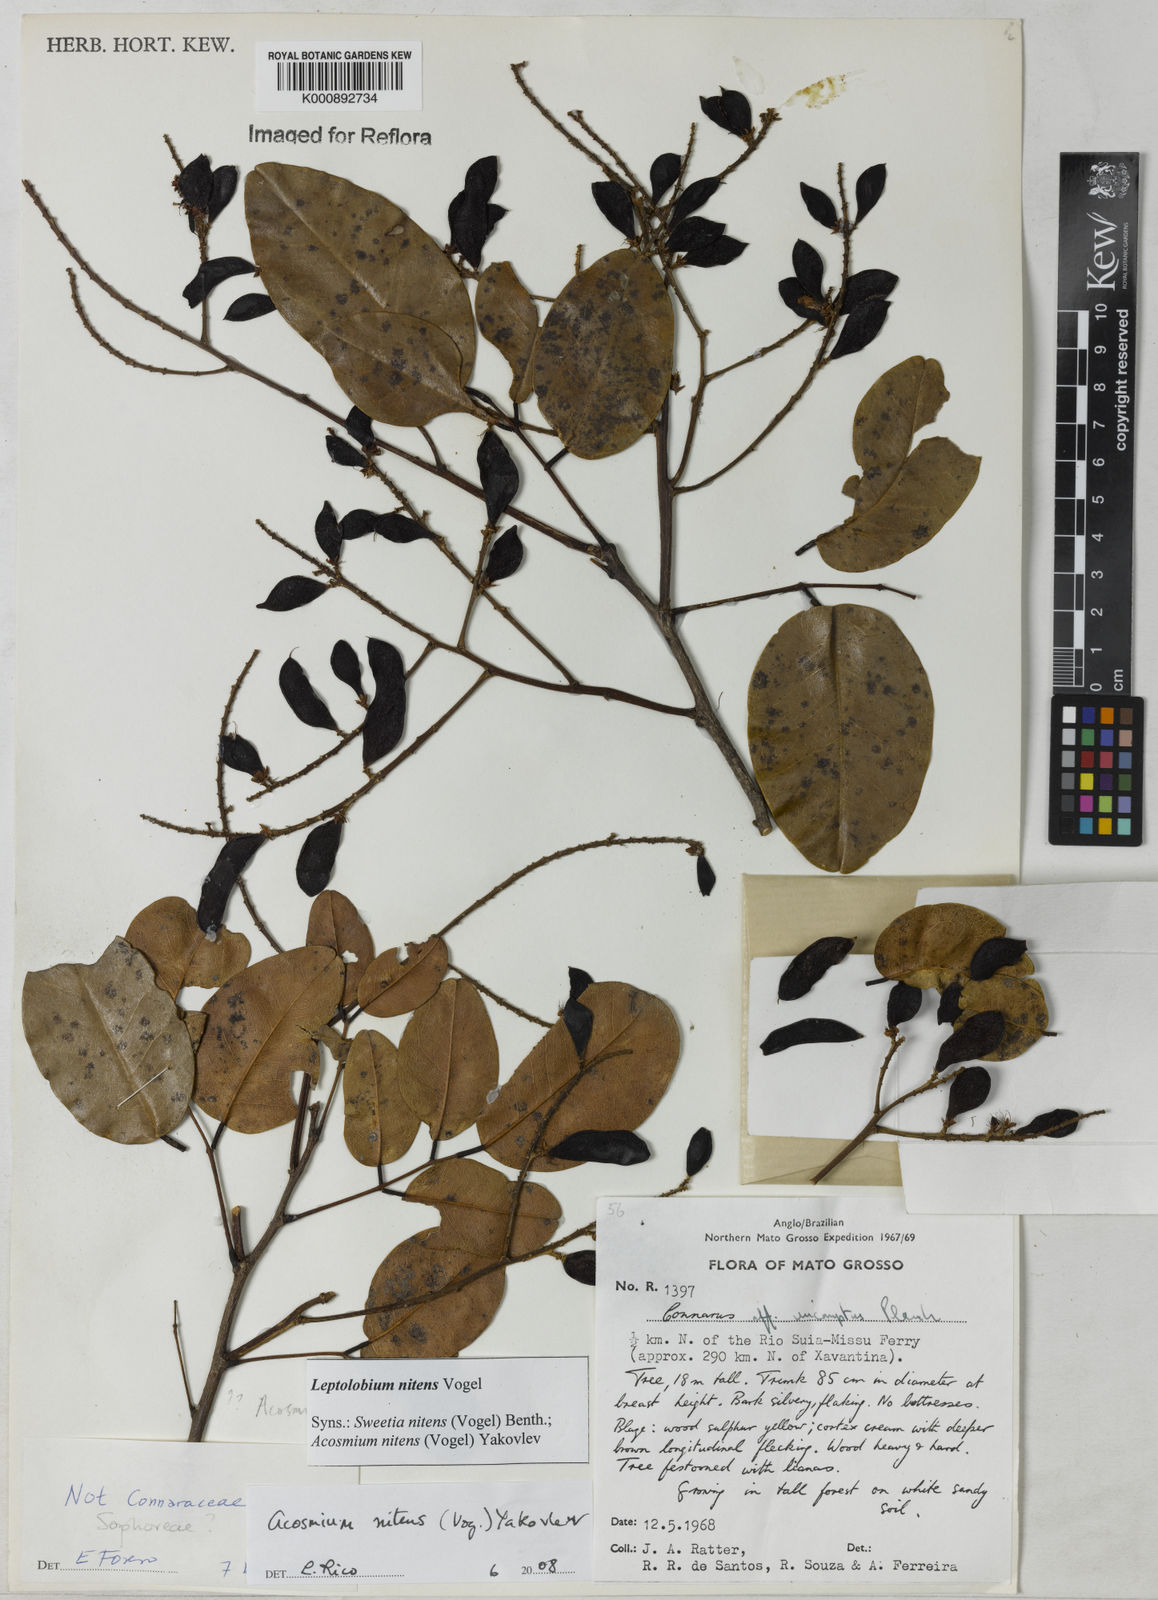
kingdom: Plantae
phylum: Tracheophyta
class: Magnoliopsida
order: Fabales
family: Fabaceae
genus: Leptolobium
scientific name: Leptolobium nitens
